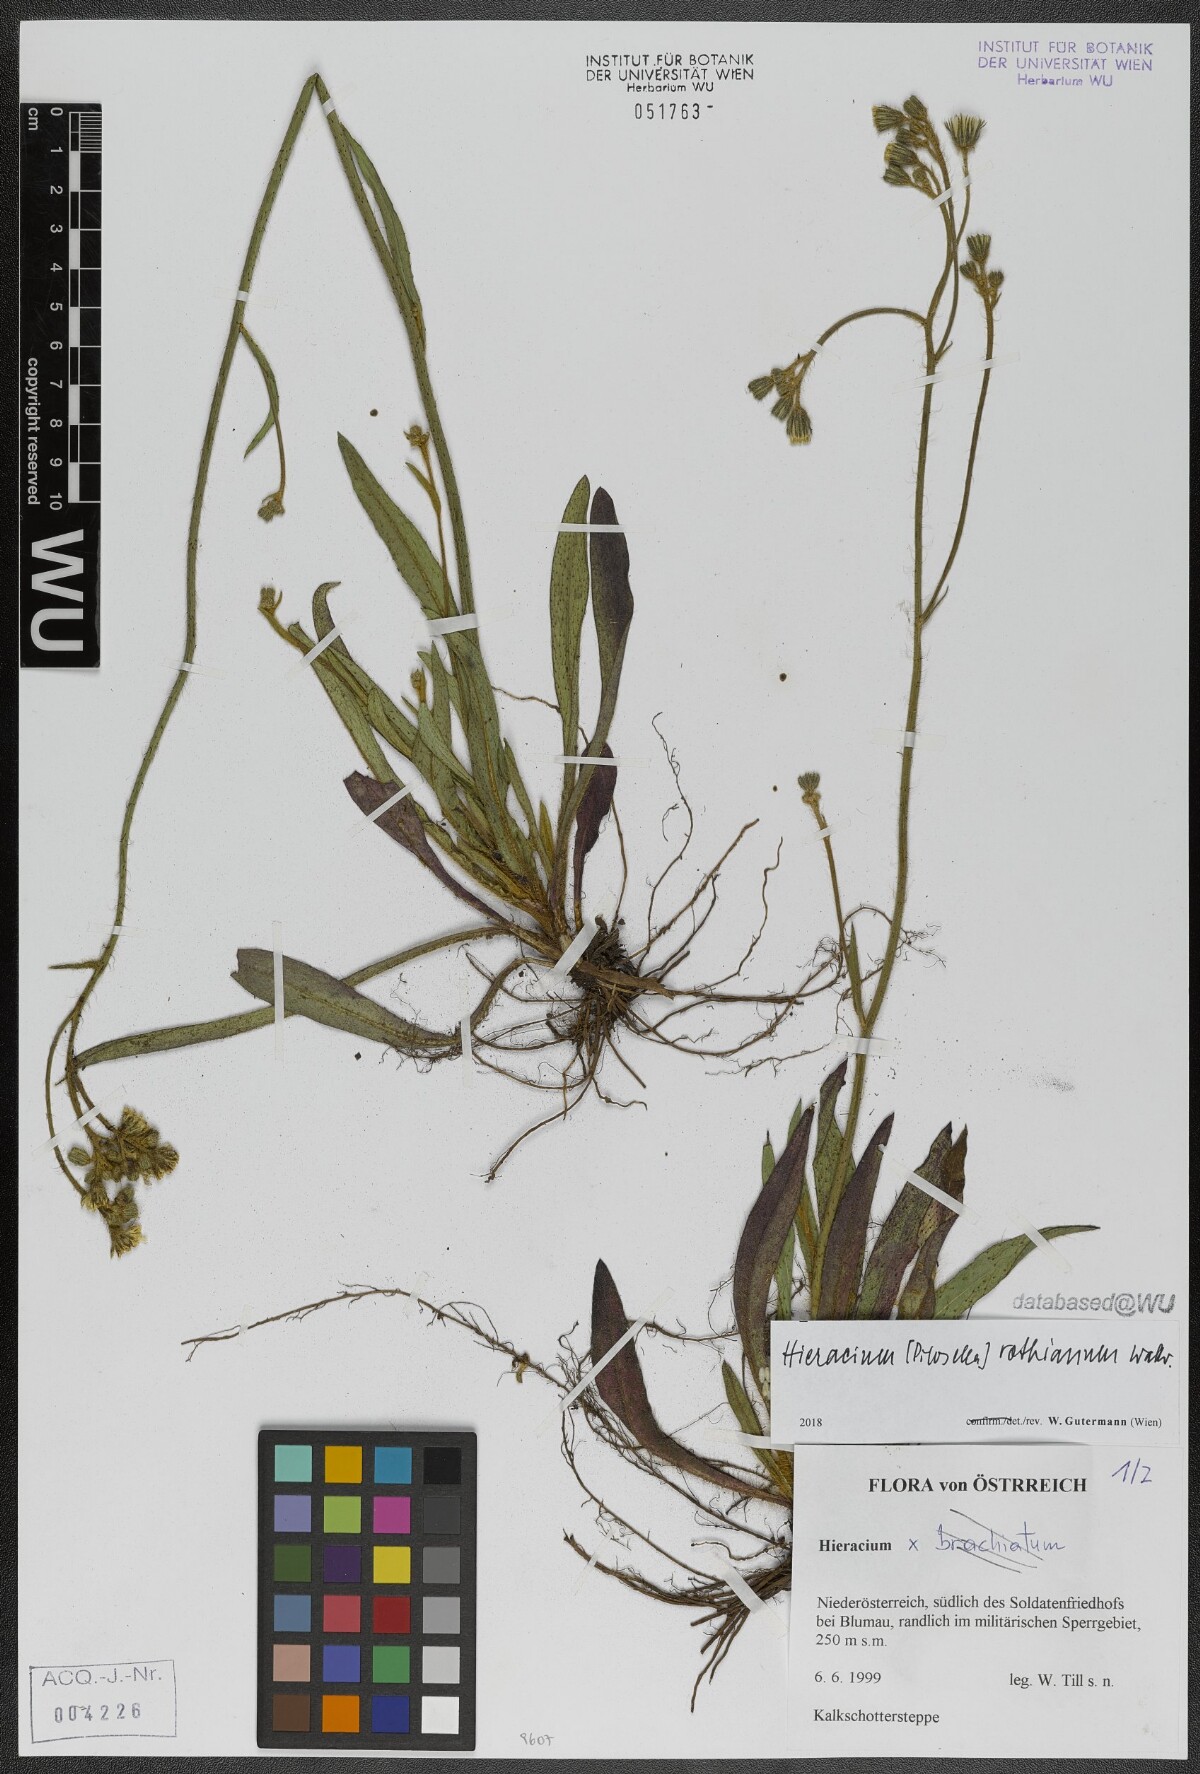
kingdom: Plantae
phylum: Tracheophyta
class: Magnoliopsida
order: Asterales
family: Asteraceae
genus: Pilosella
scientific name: Pilosella rothiana
